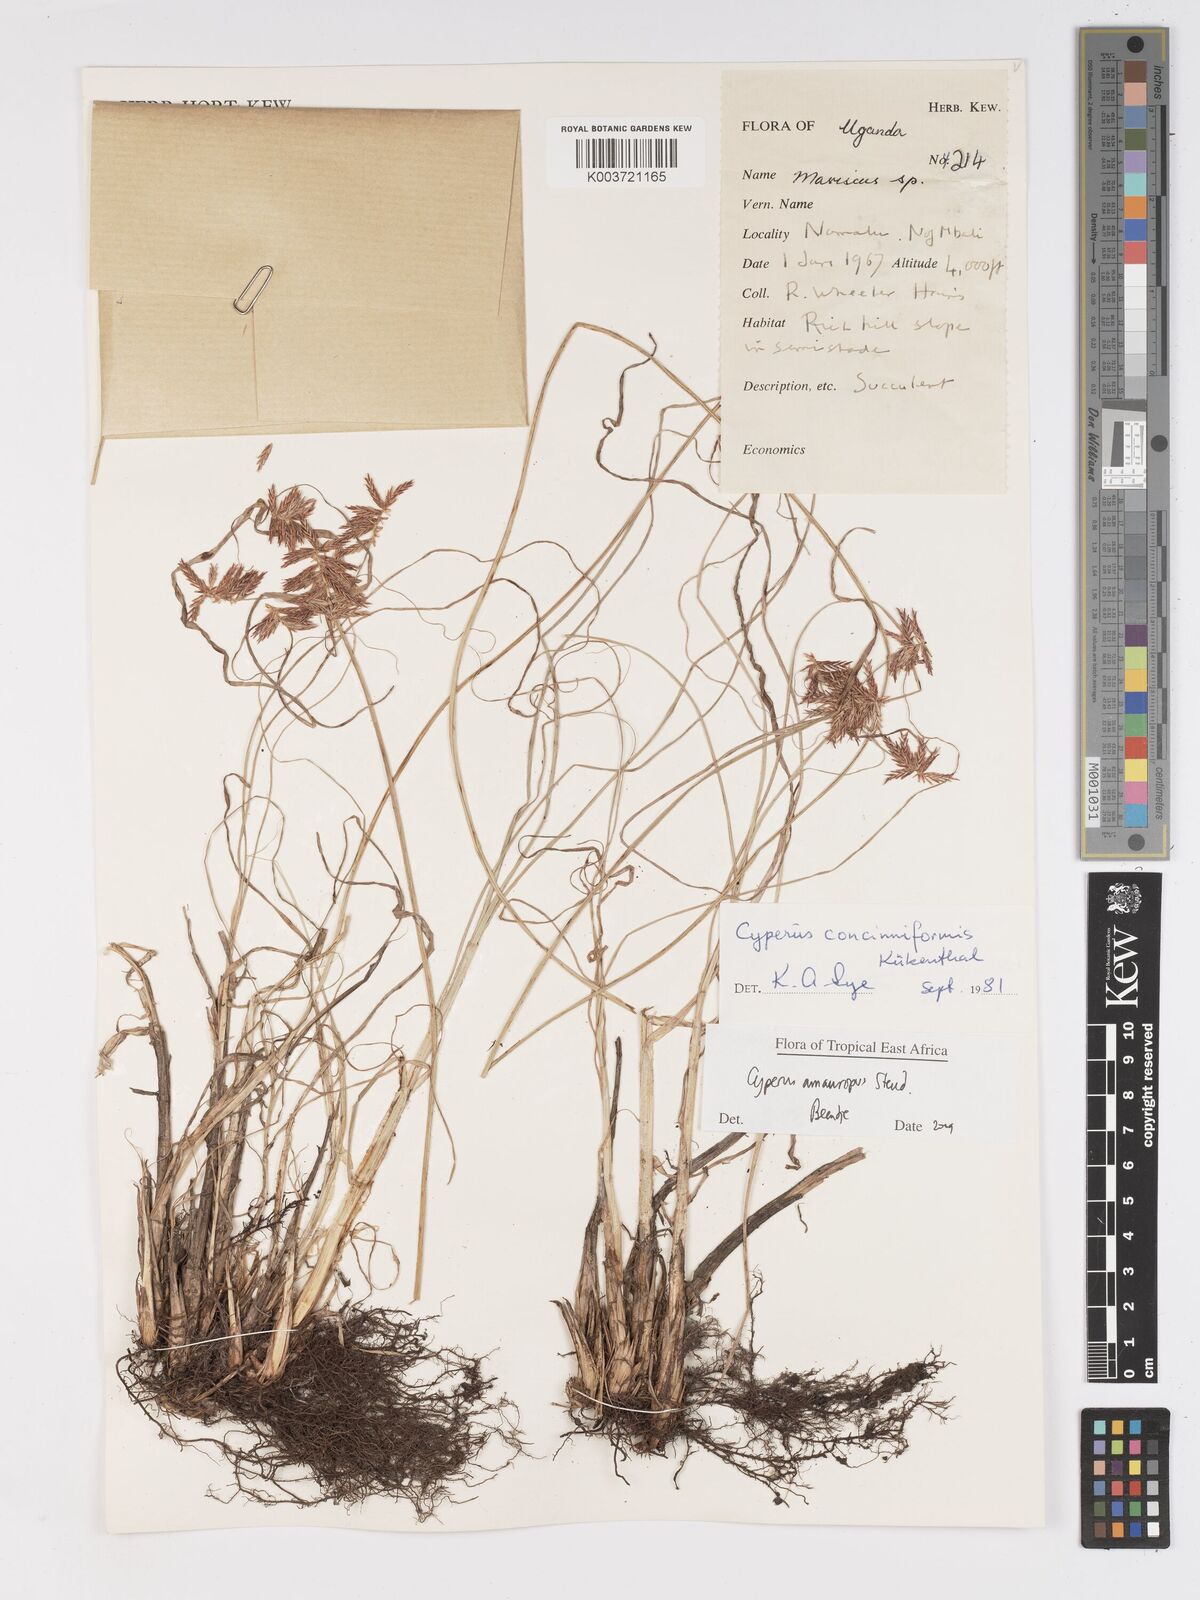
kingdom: Plantae
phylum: Tracheophyta
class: Liliopsida
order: Poales
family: Cyperaceae
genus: Cyperus
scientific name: Cyperus amauropus
